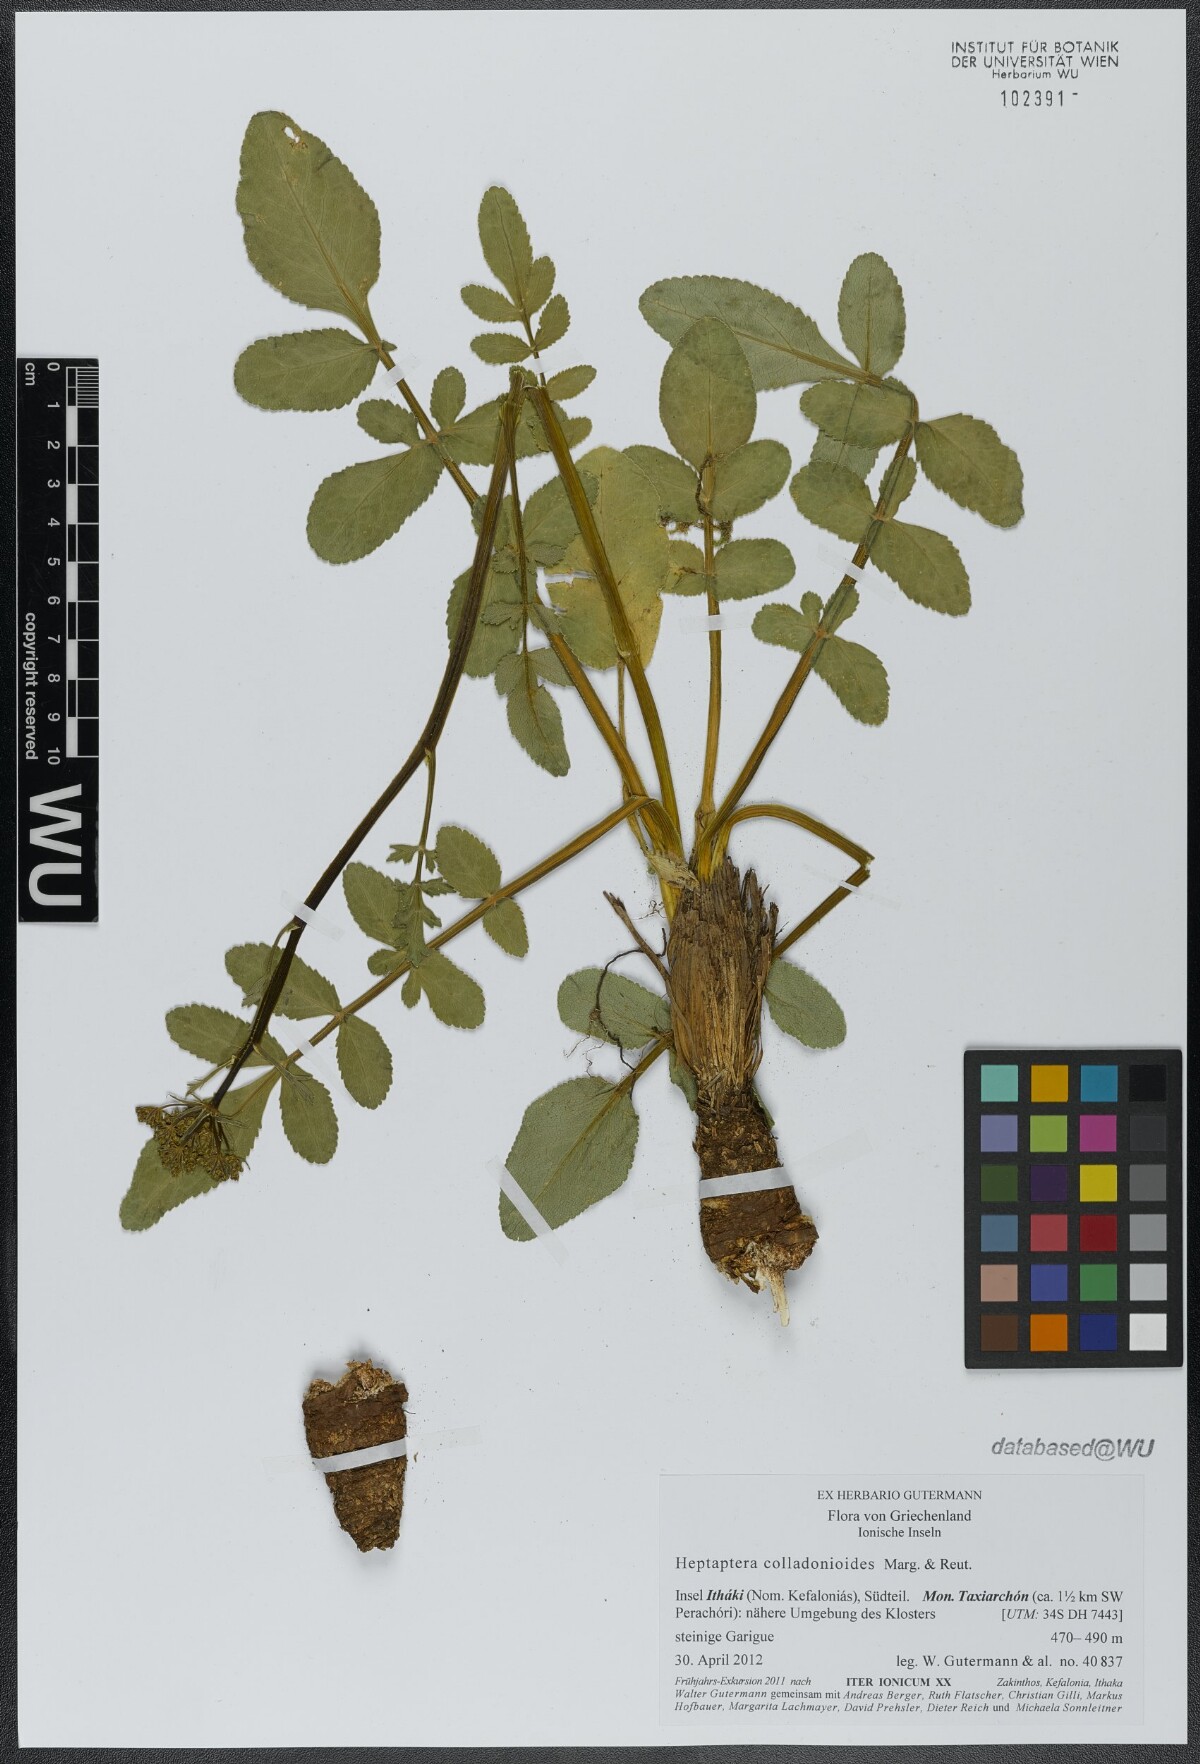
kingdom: Plantae
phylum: Tracheophyta
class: Magnoliopsida
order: Apiales
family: Apiaceae
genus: Heptaptera
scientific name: Heptaptera colladonioides
